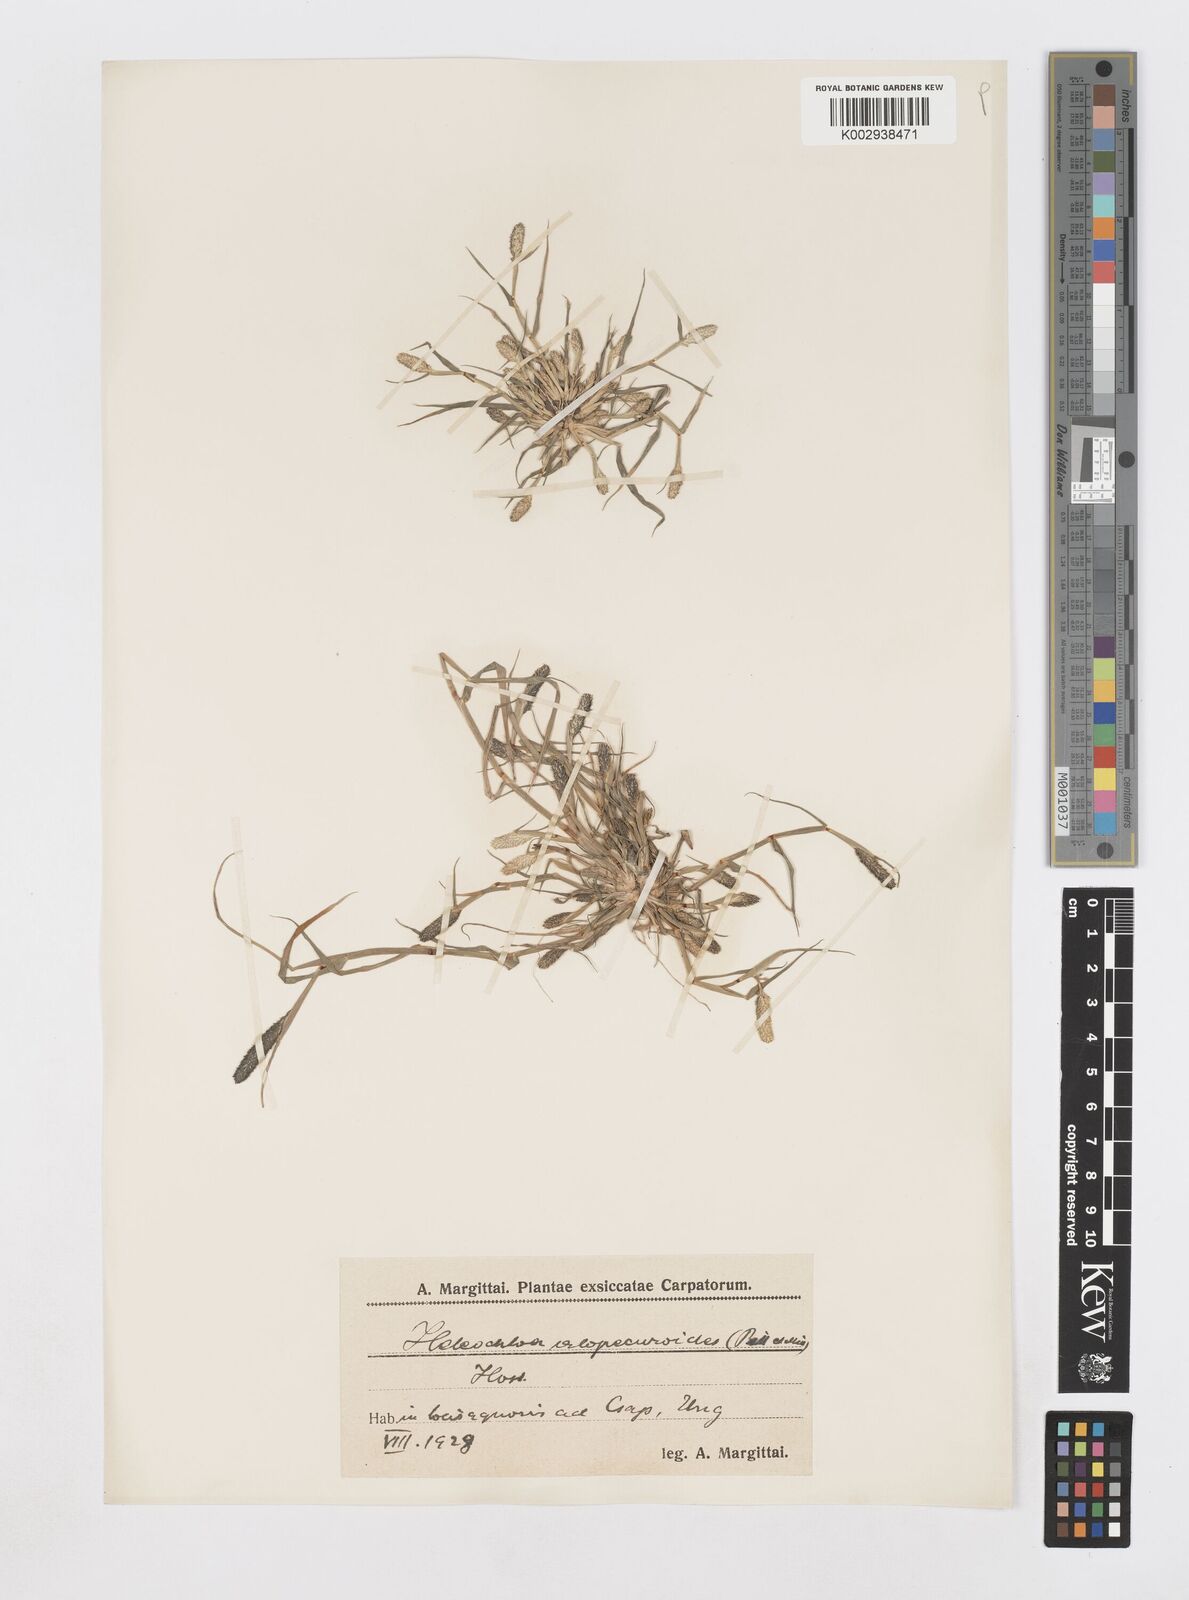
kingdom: Plantae
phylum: Tracheophyta
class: Liliopsida
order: Poales
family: Poaceae
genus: Sporobolus
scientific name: Sporobolus alopecuroides
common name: Foxtail pricklegrass
